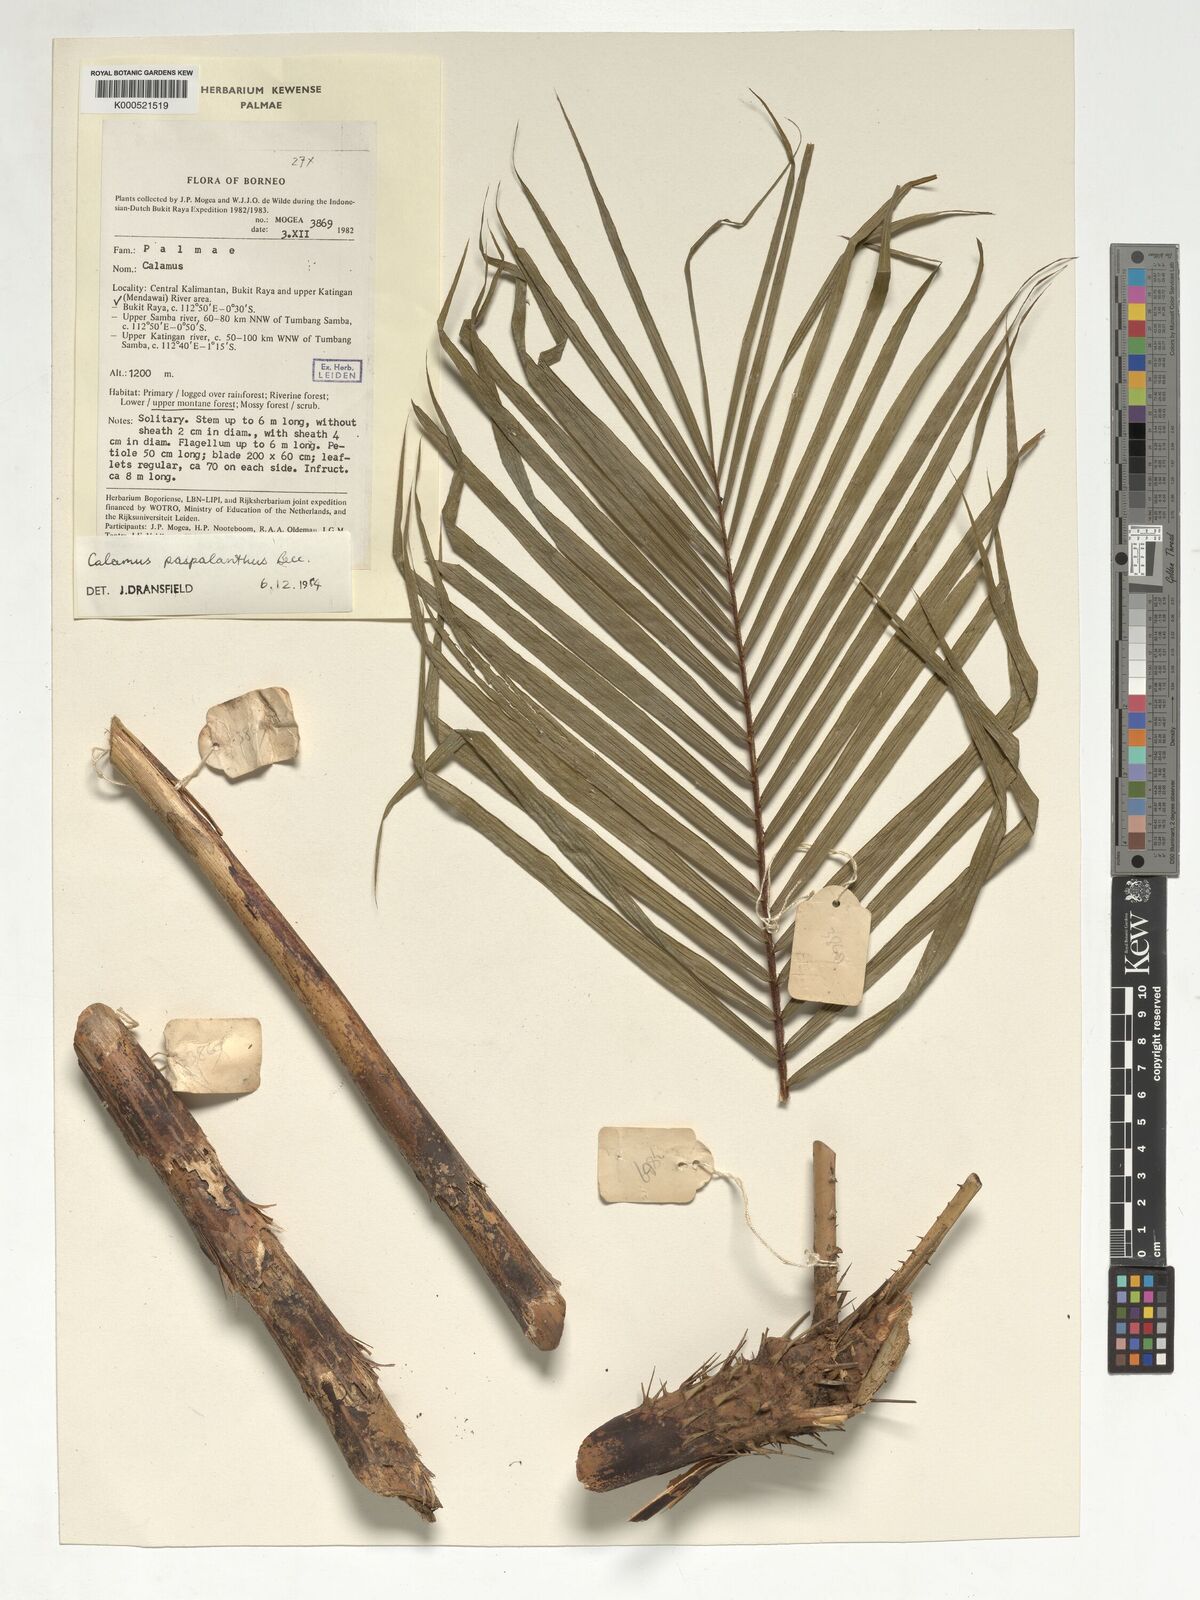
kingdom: Plantae
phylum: Tracheophyta
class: Liliopsida
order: Arecales
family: Arecaceae
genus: Calamus
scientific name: Calamus paspalanthus
